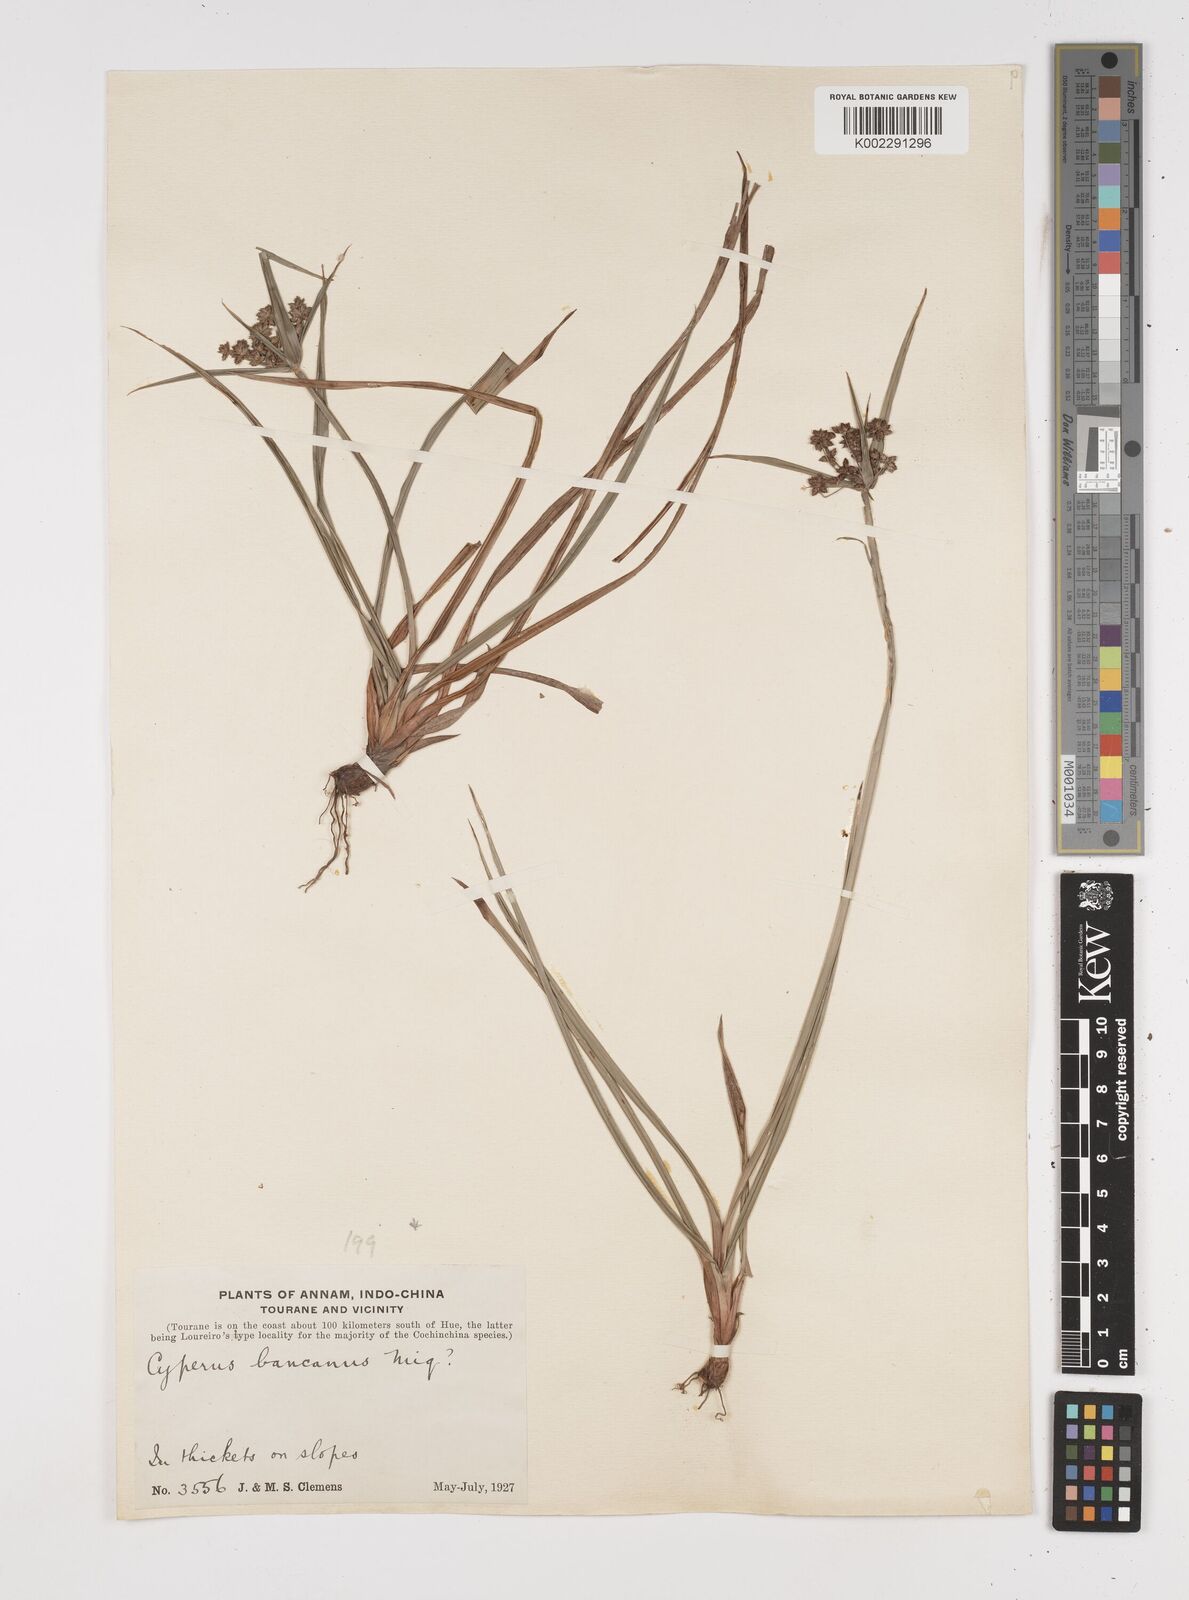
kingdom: Plantae
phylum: Tracheophyta
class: Liliopsida
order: Poales
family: Cyperaceae
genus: Cyperus
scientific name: Cyperus trialatus
